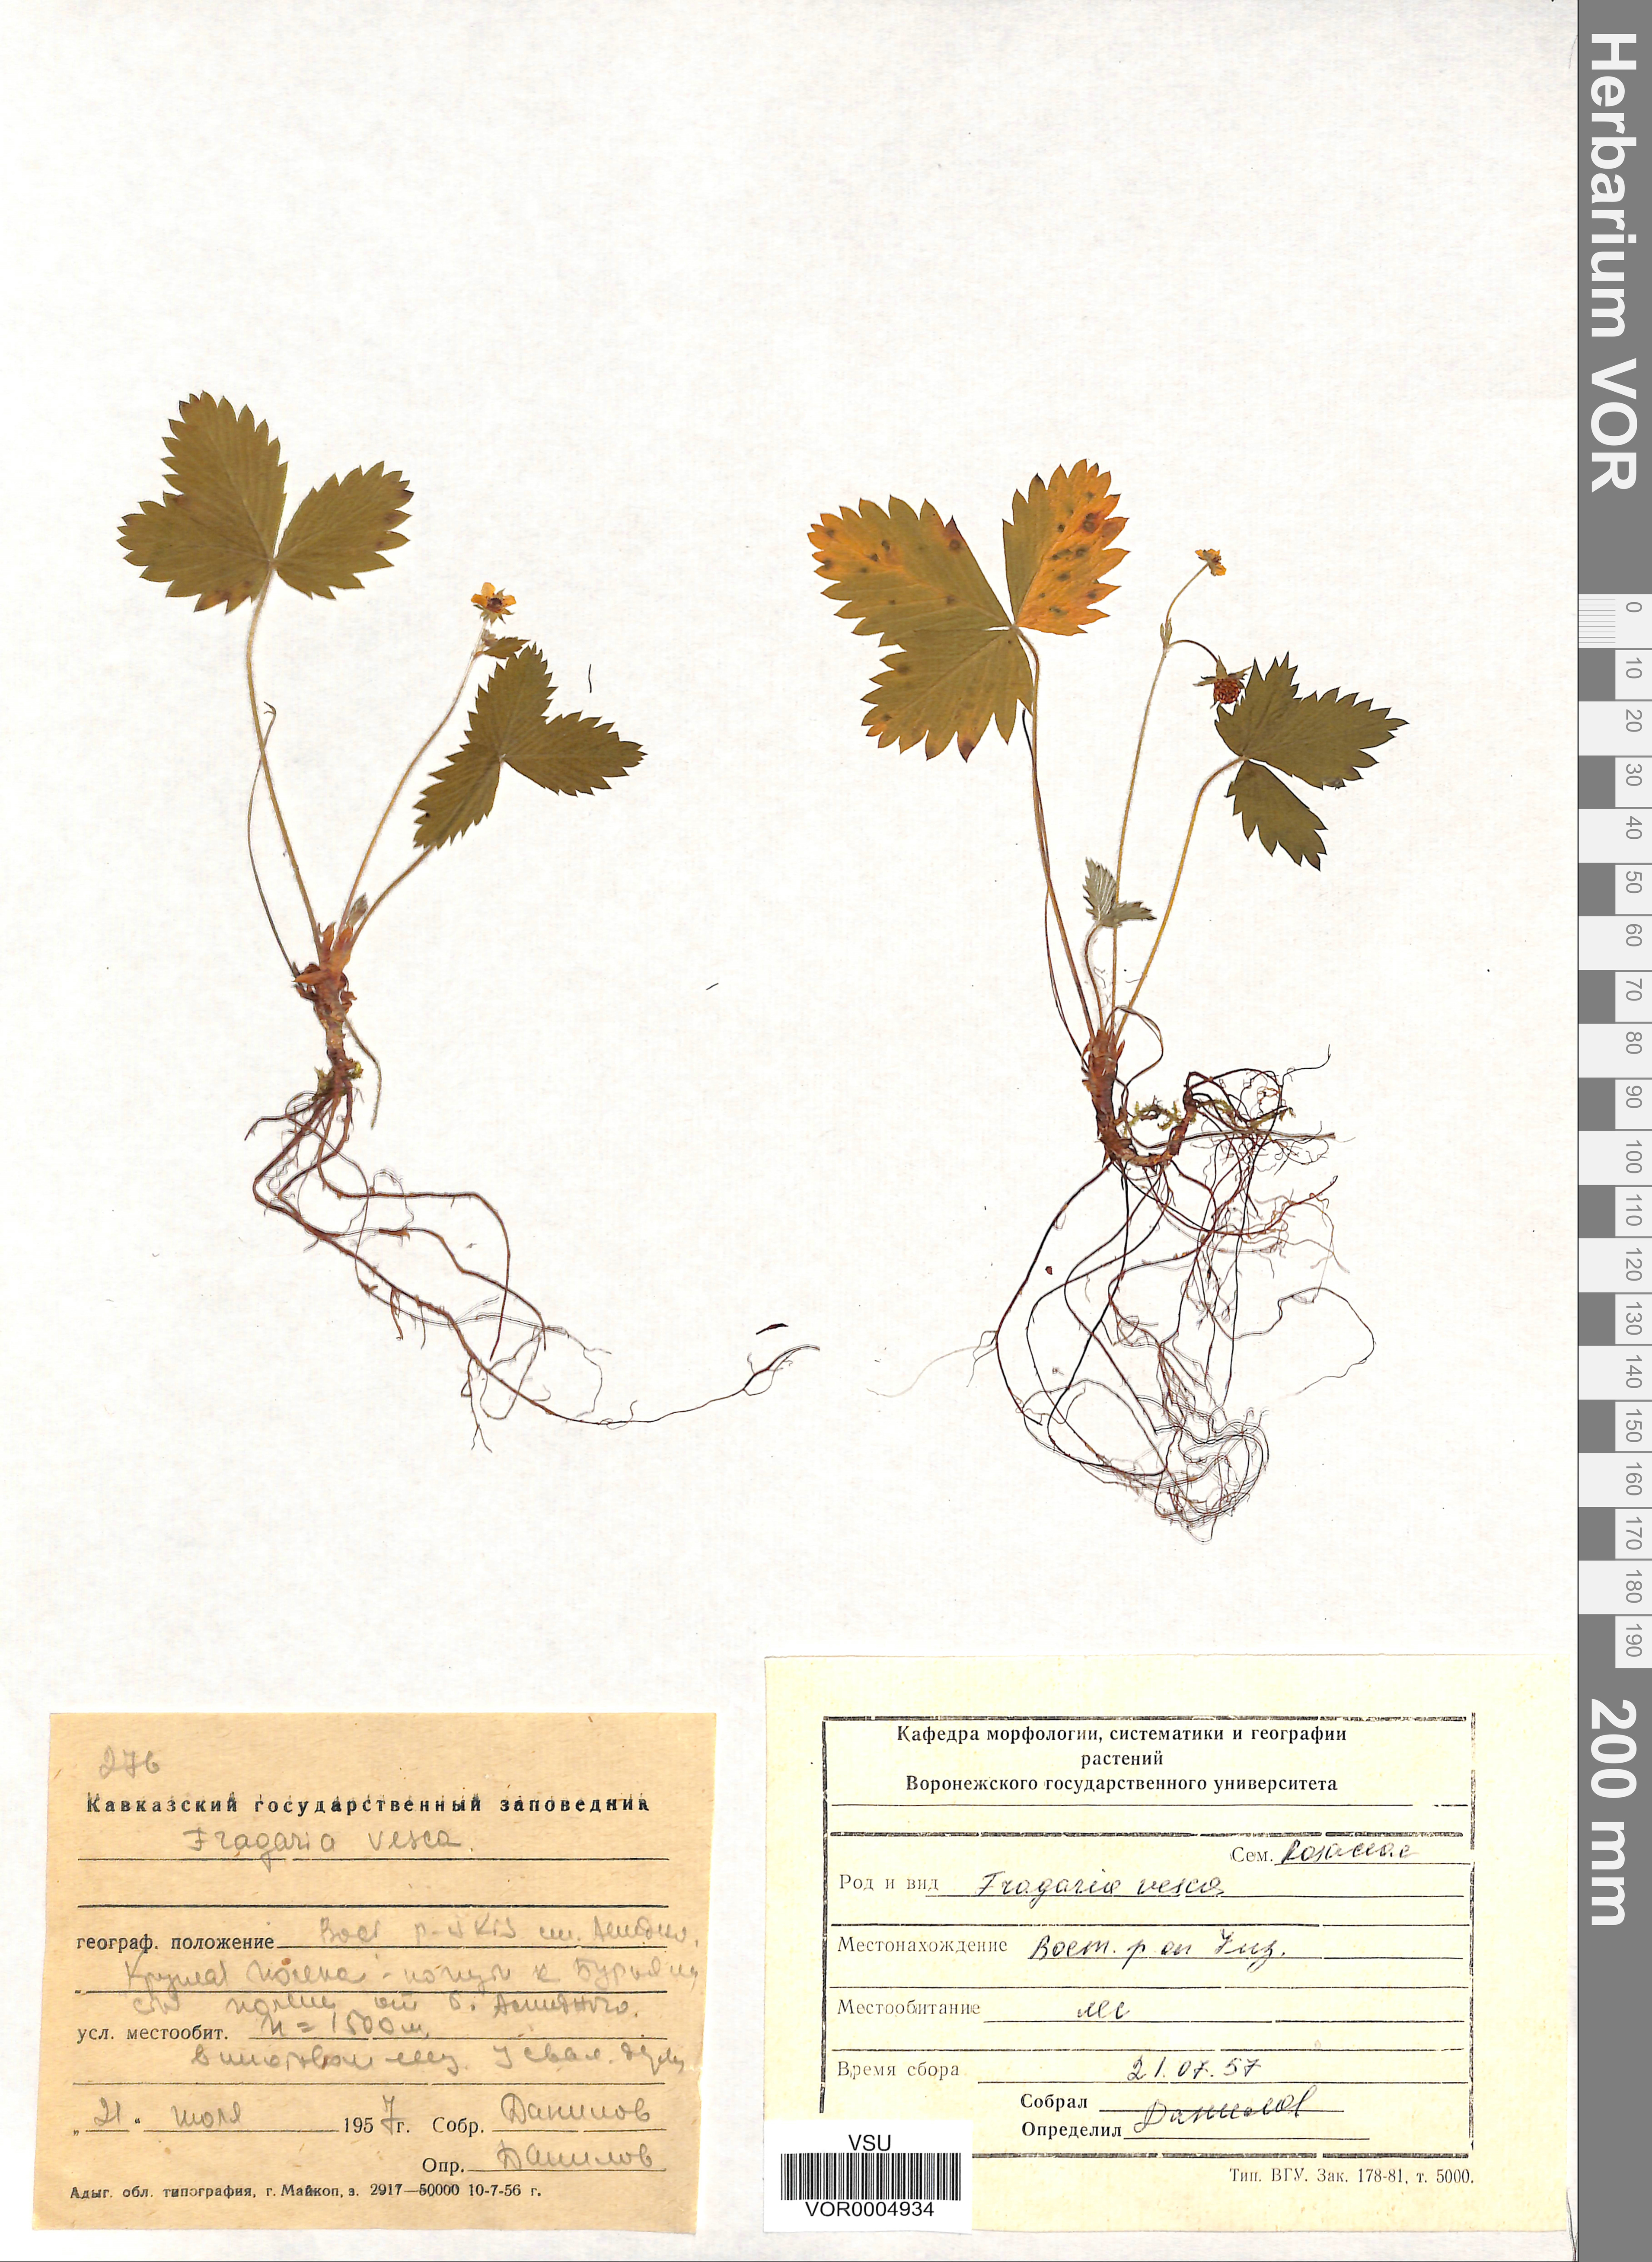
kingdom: Plantae
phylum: Tracheophyta
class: Magnoliopsida
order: Rosales
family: Rosaceae
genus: Fragaria
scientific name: Fragaria vesca
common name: Wild strawberry
